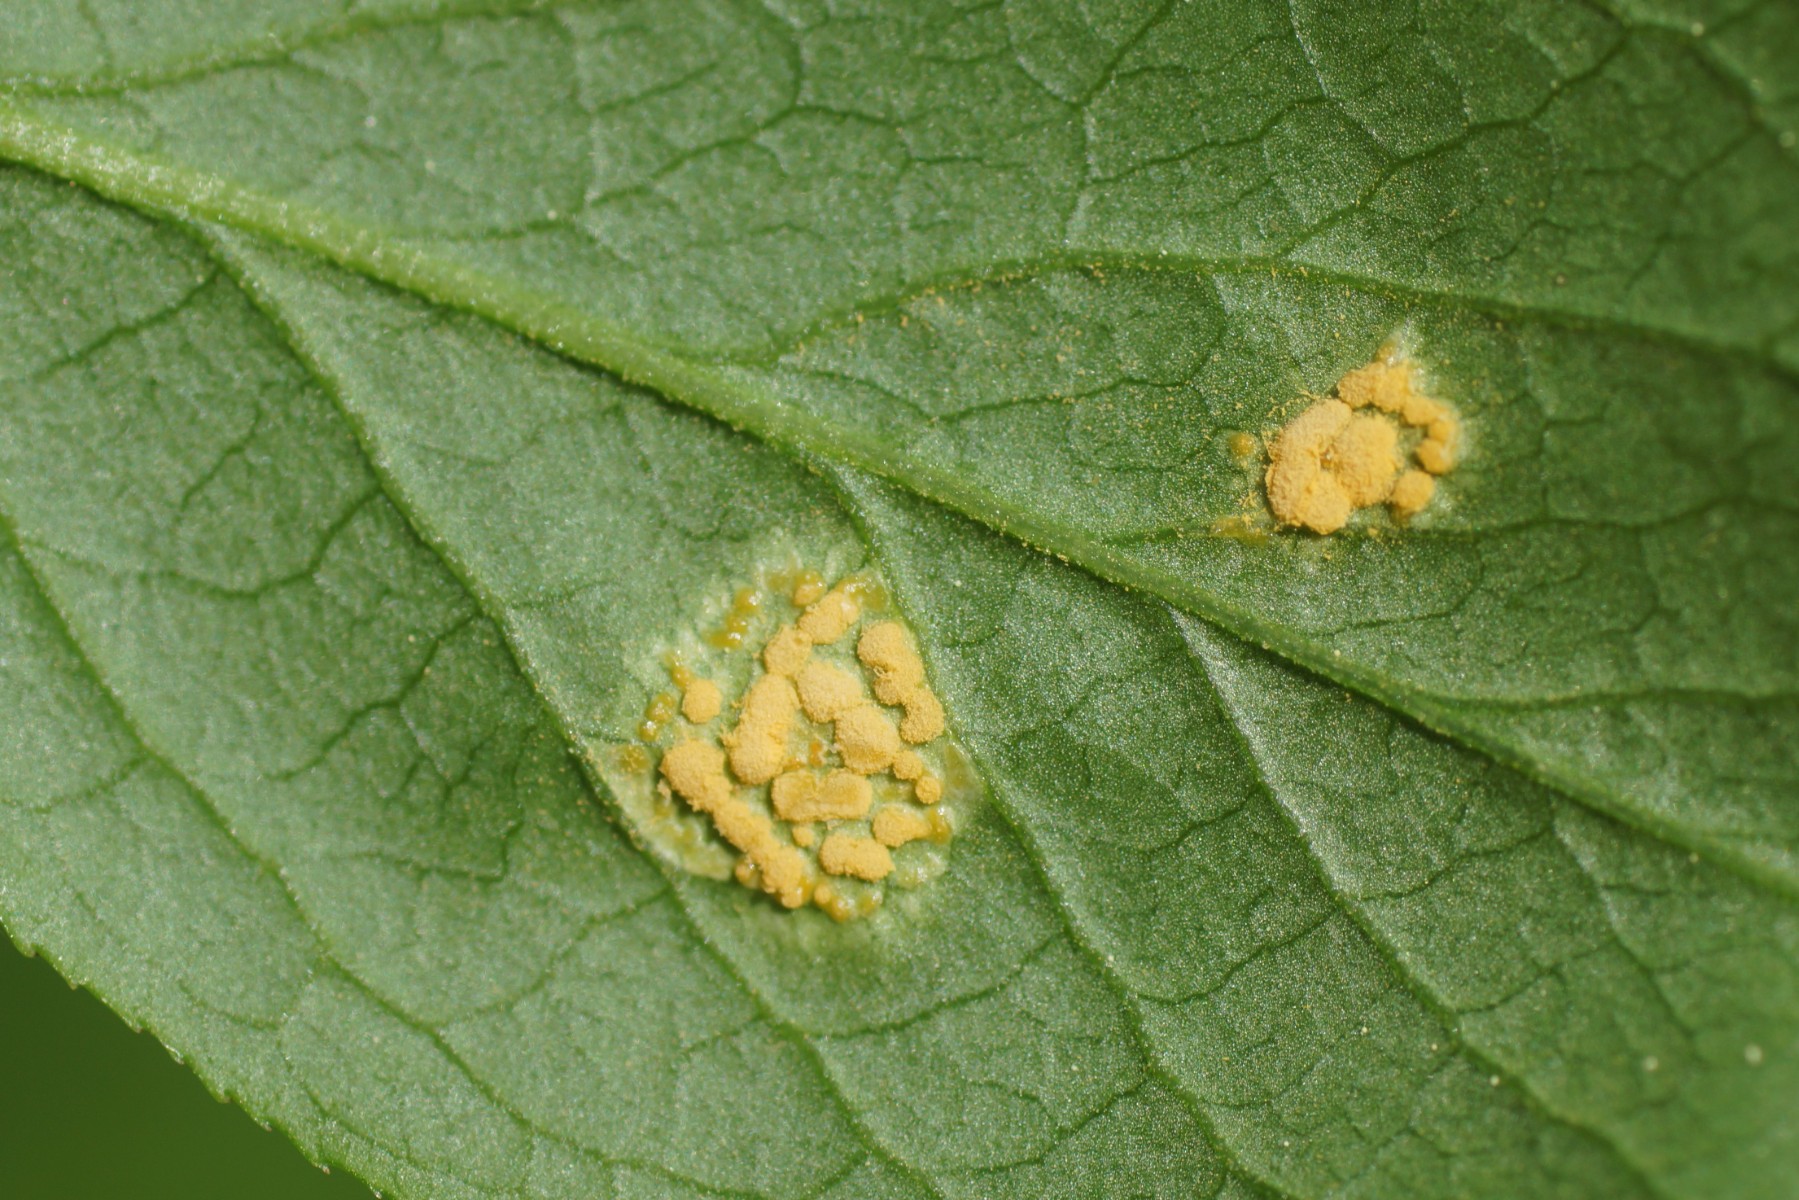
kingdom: Fungi
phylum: Basidiomycota
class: Pucciniomycetes
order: Pucciniales
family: Melampsoraceae
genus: Melampsora
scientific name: Melampsora epitea
